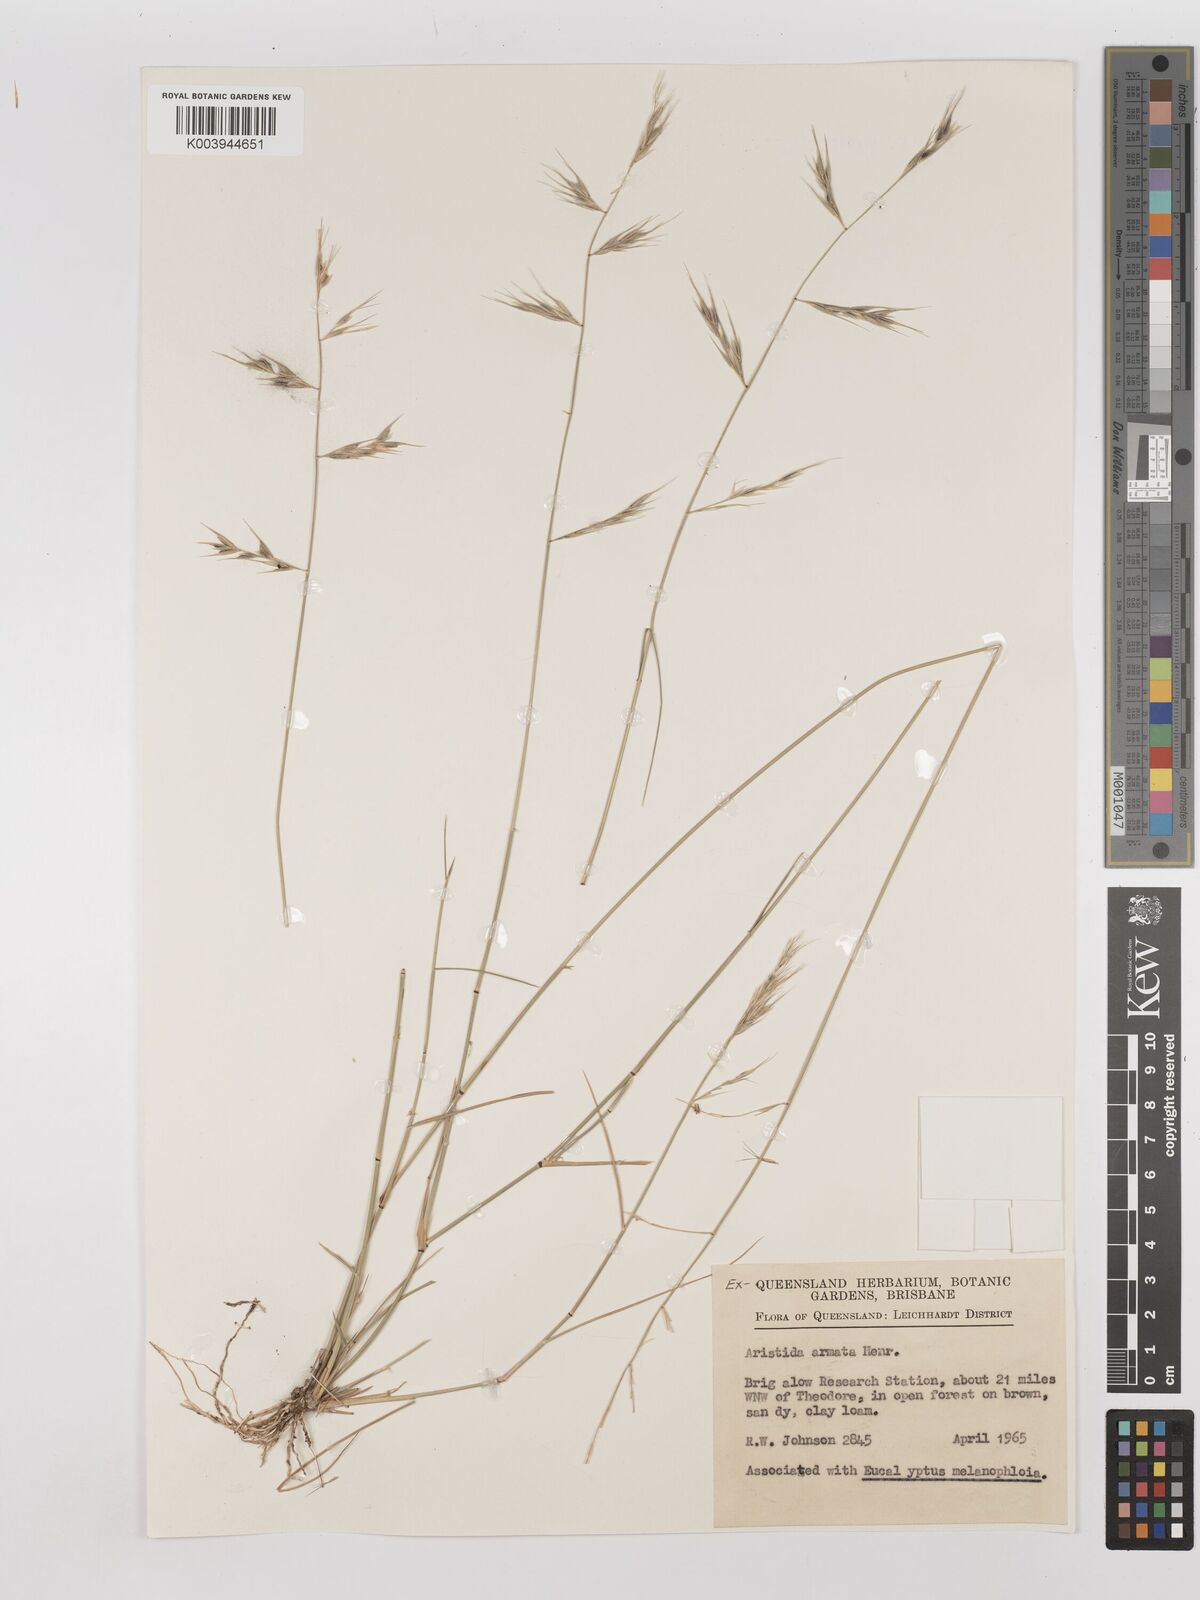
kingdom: Plantae
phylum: Tracheophyta
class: Liliopsida
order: Poales
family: Poaceae
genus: Aristida
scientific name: Aristida calycina
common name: Dark wire grass
